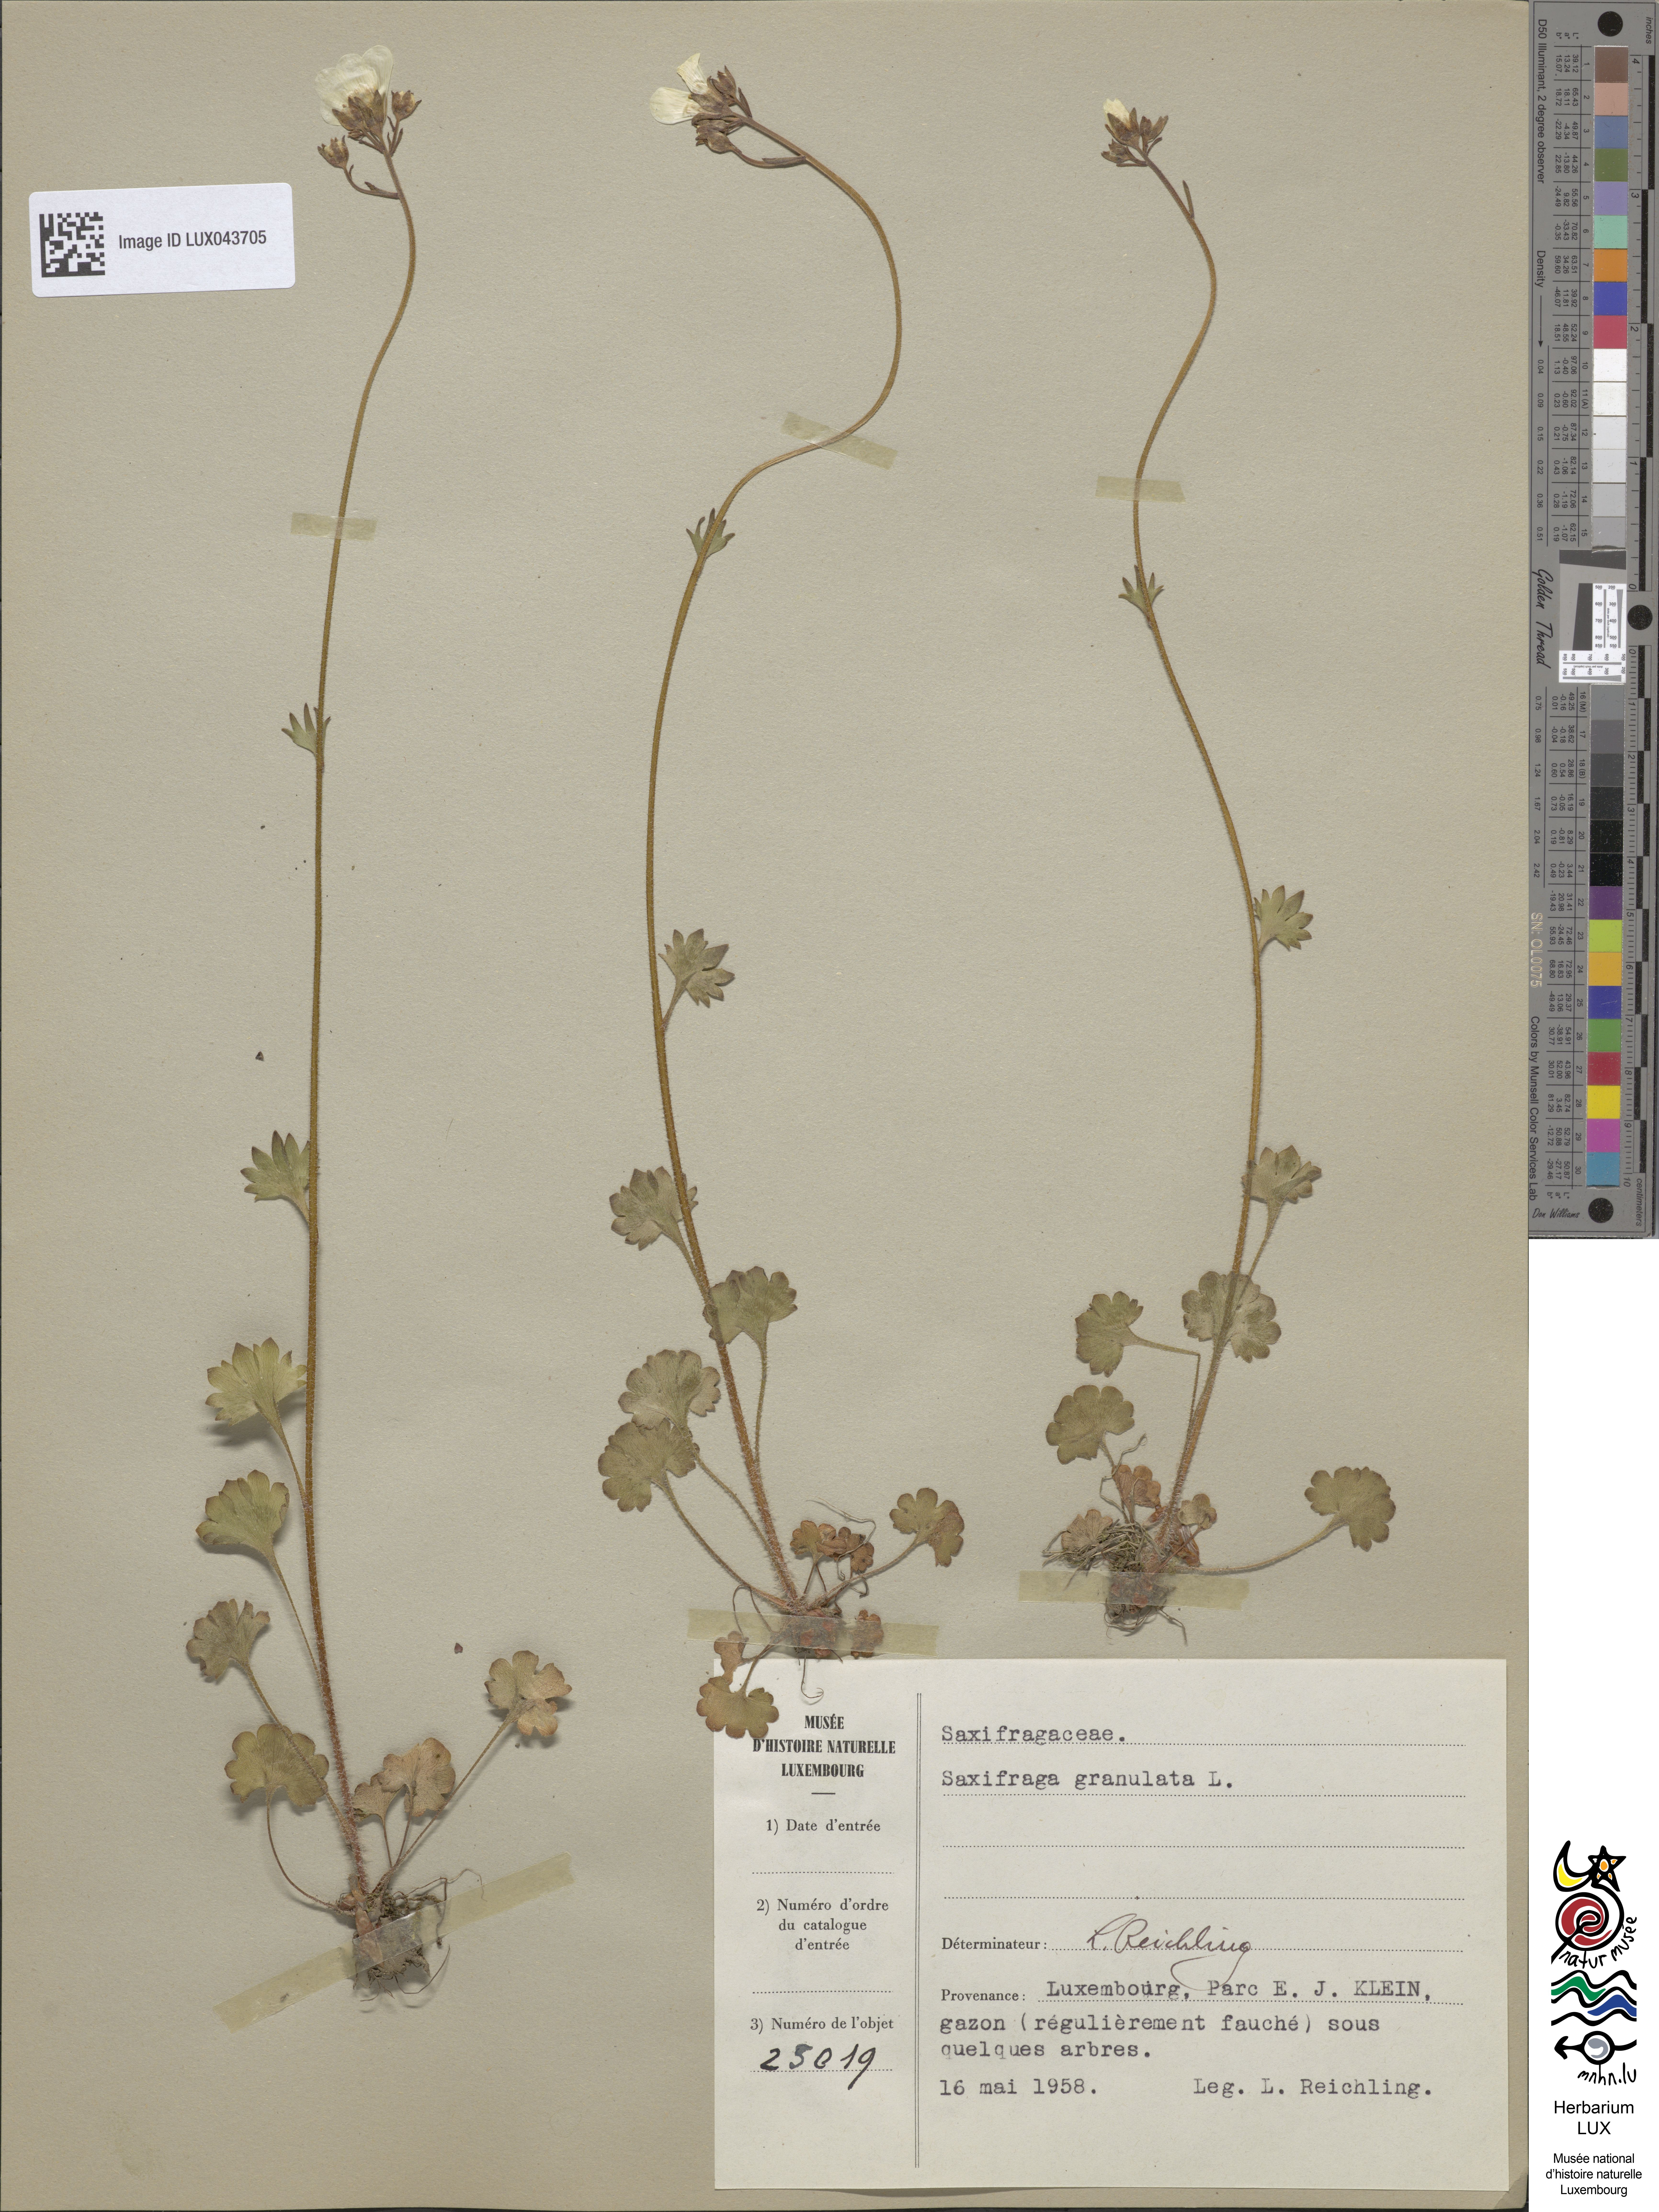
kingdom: Plantae
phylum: Tracheophyta
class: Magnoliopsida
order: Saxifragales
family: Saxifragaceae
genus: Saxifraga
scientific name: Saxifraga granulata
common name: Meadow saxifrage
